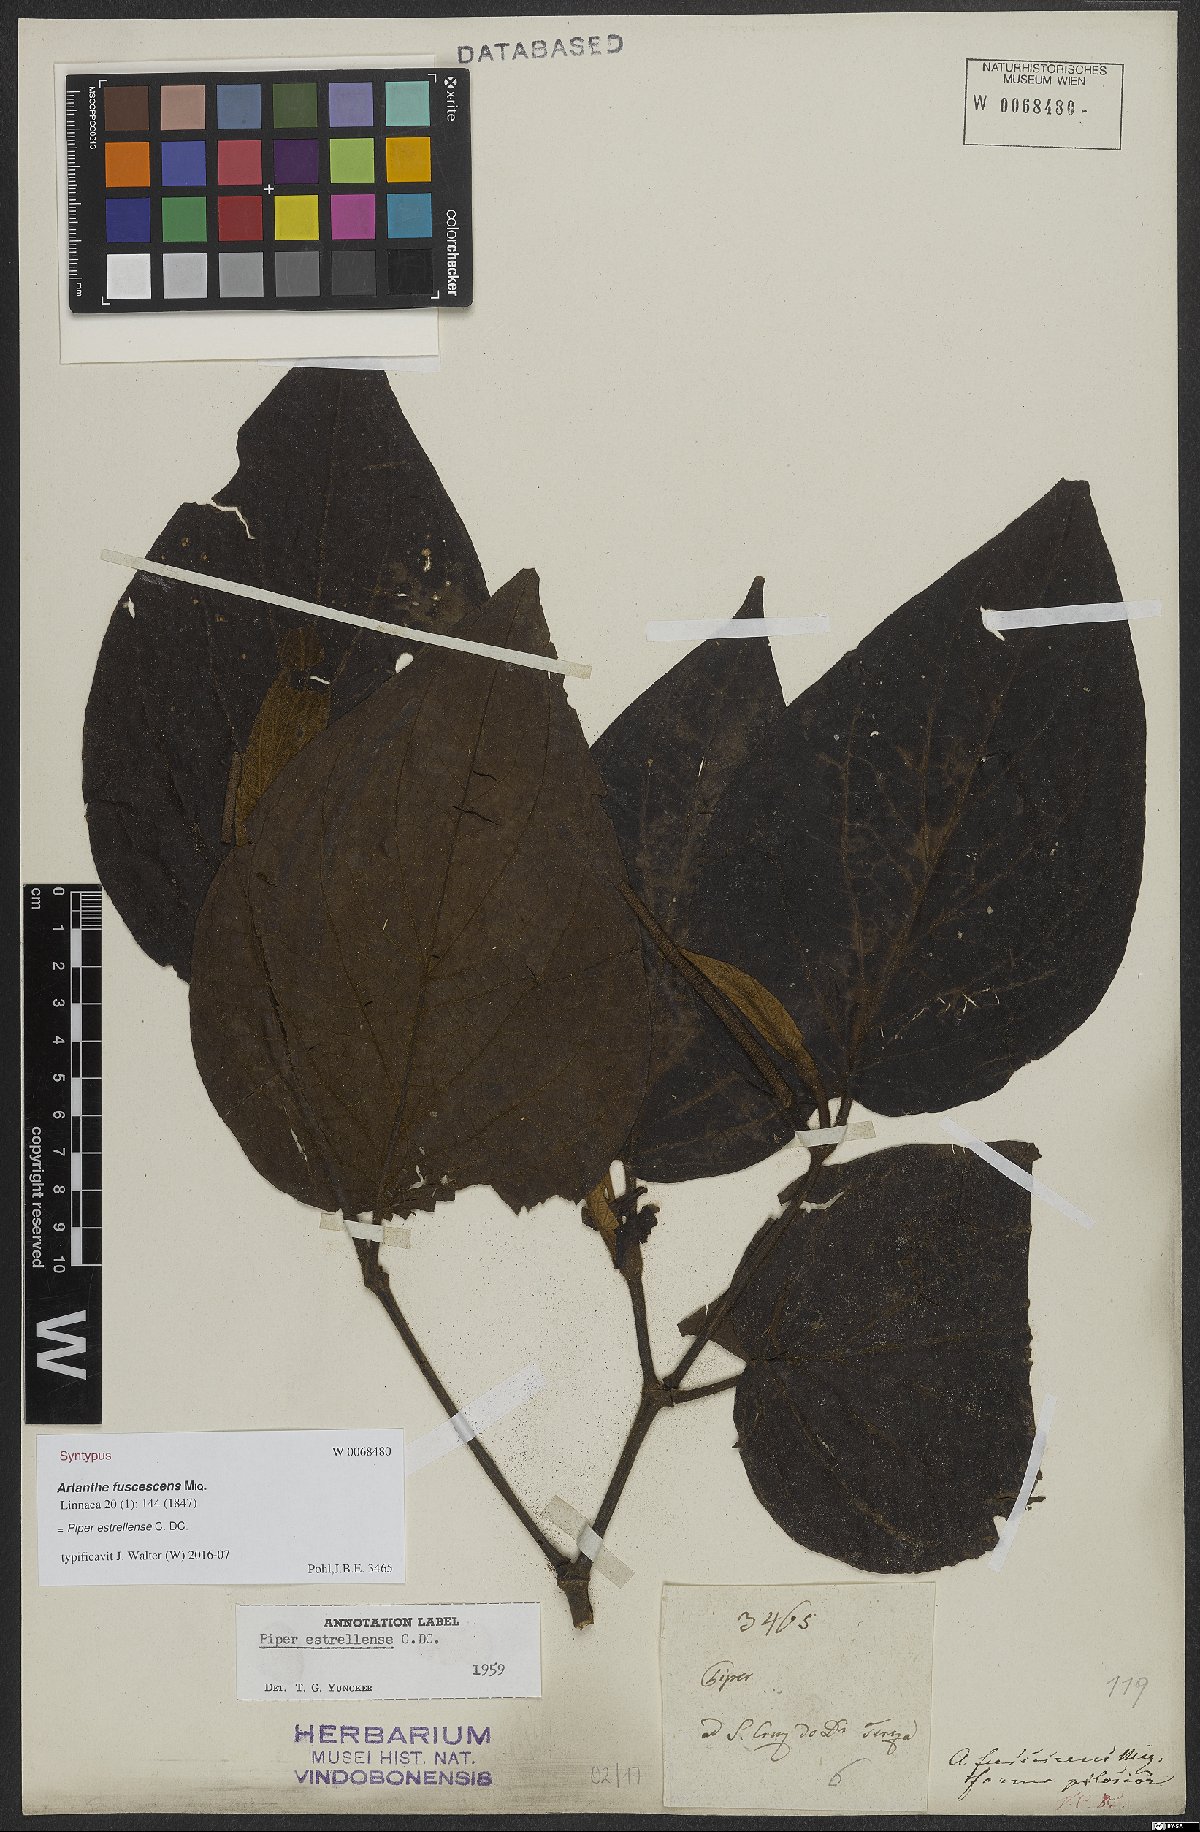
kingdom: Plantae
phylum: Tracheophyta
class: Magnoliopsida
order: Piperales
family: Piperaceae
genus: Piper
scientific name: Piper tectoniifolium
